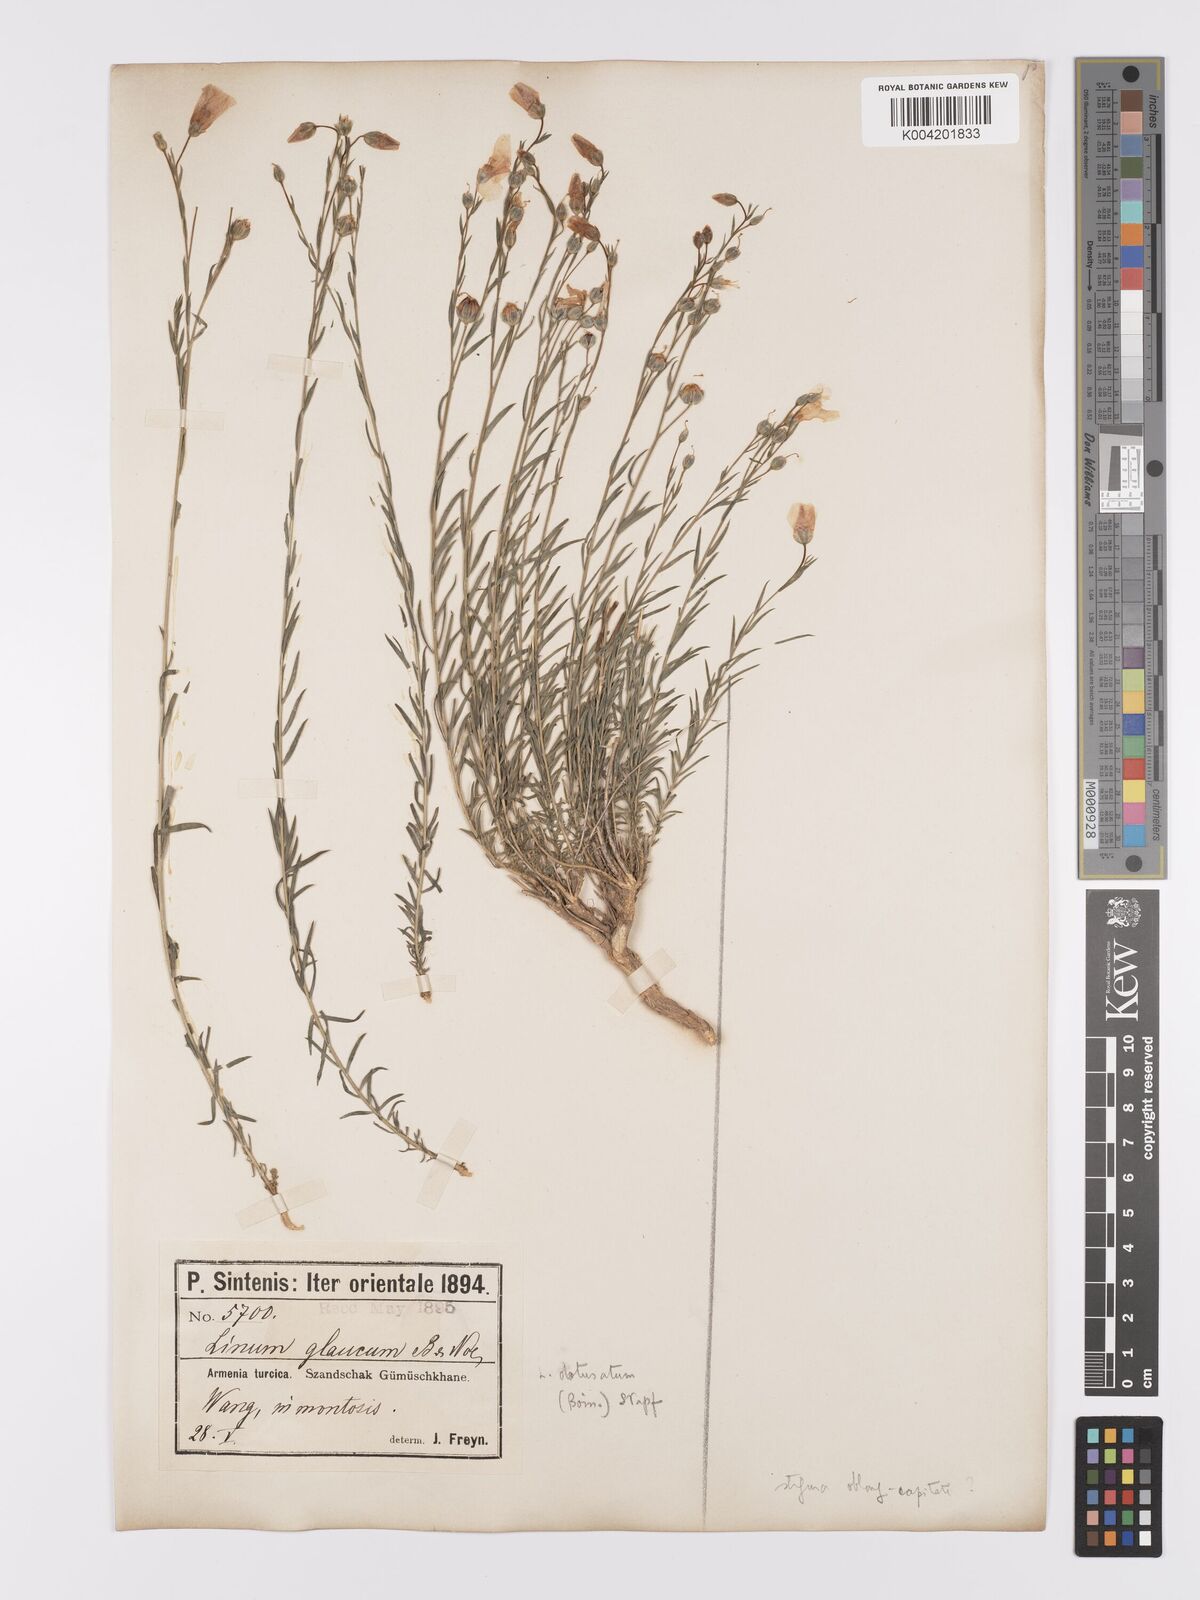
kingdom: Plantae
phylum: Tracheophyta
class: Magnoliopsida
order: Malpighiales
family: Linaceae
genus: Linum
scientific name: Linum obtusatum
